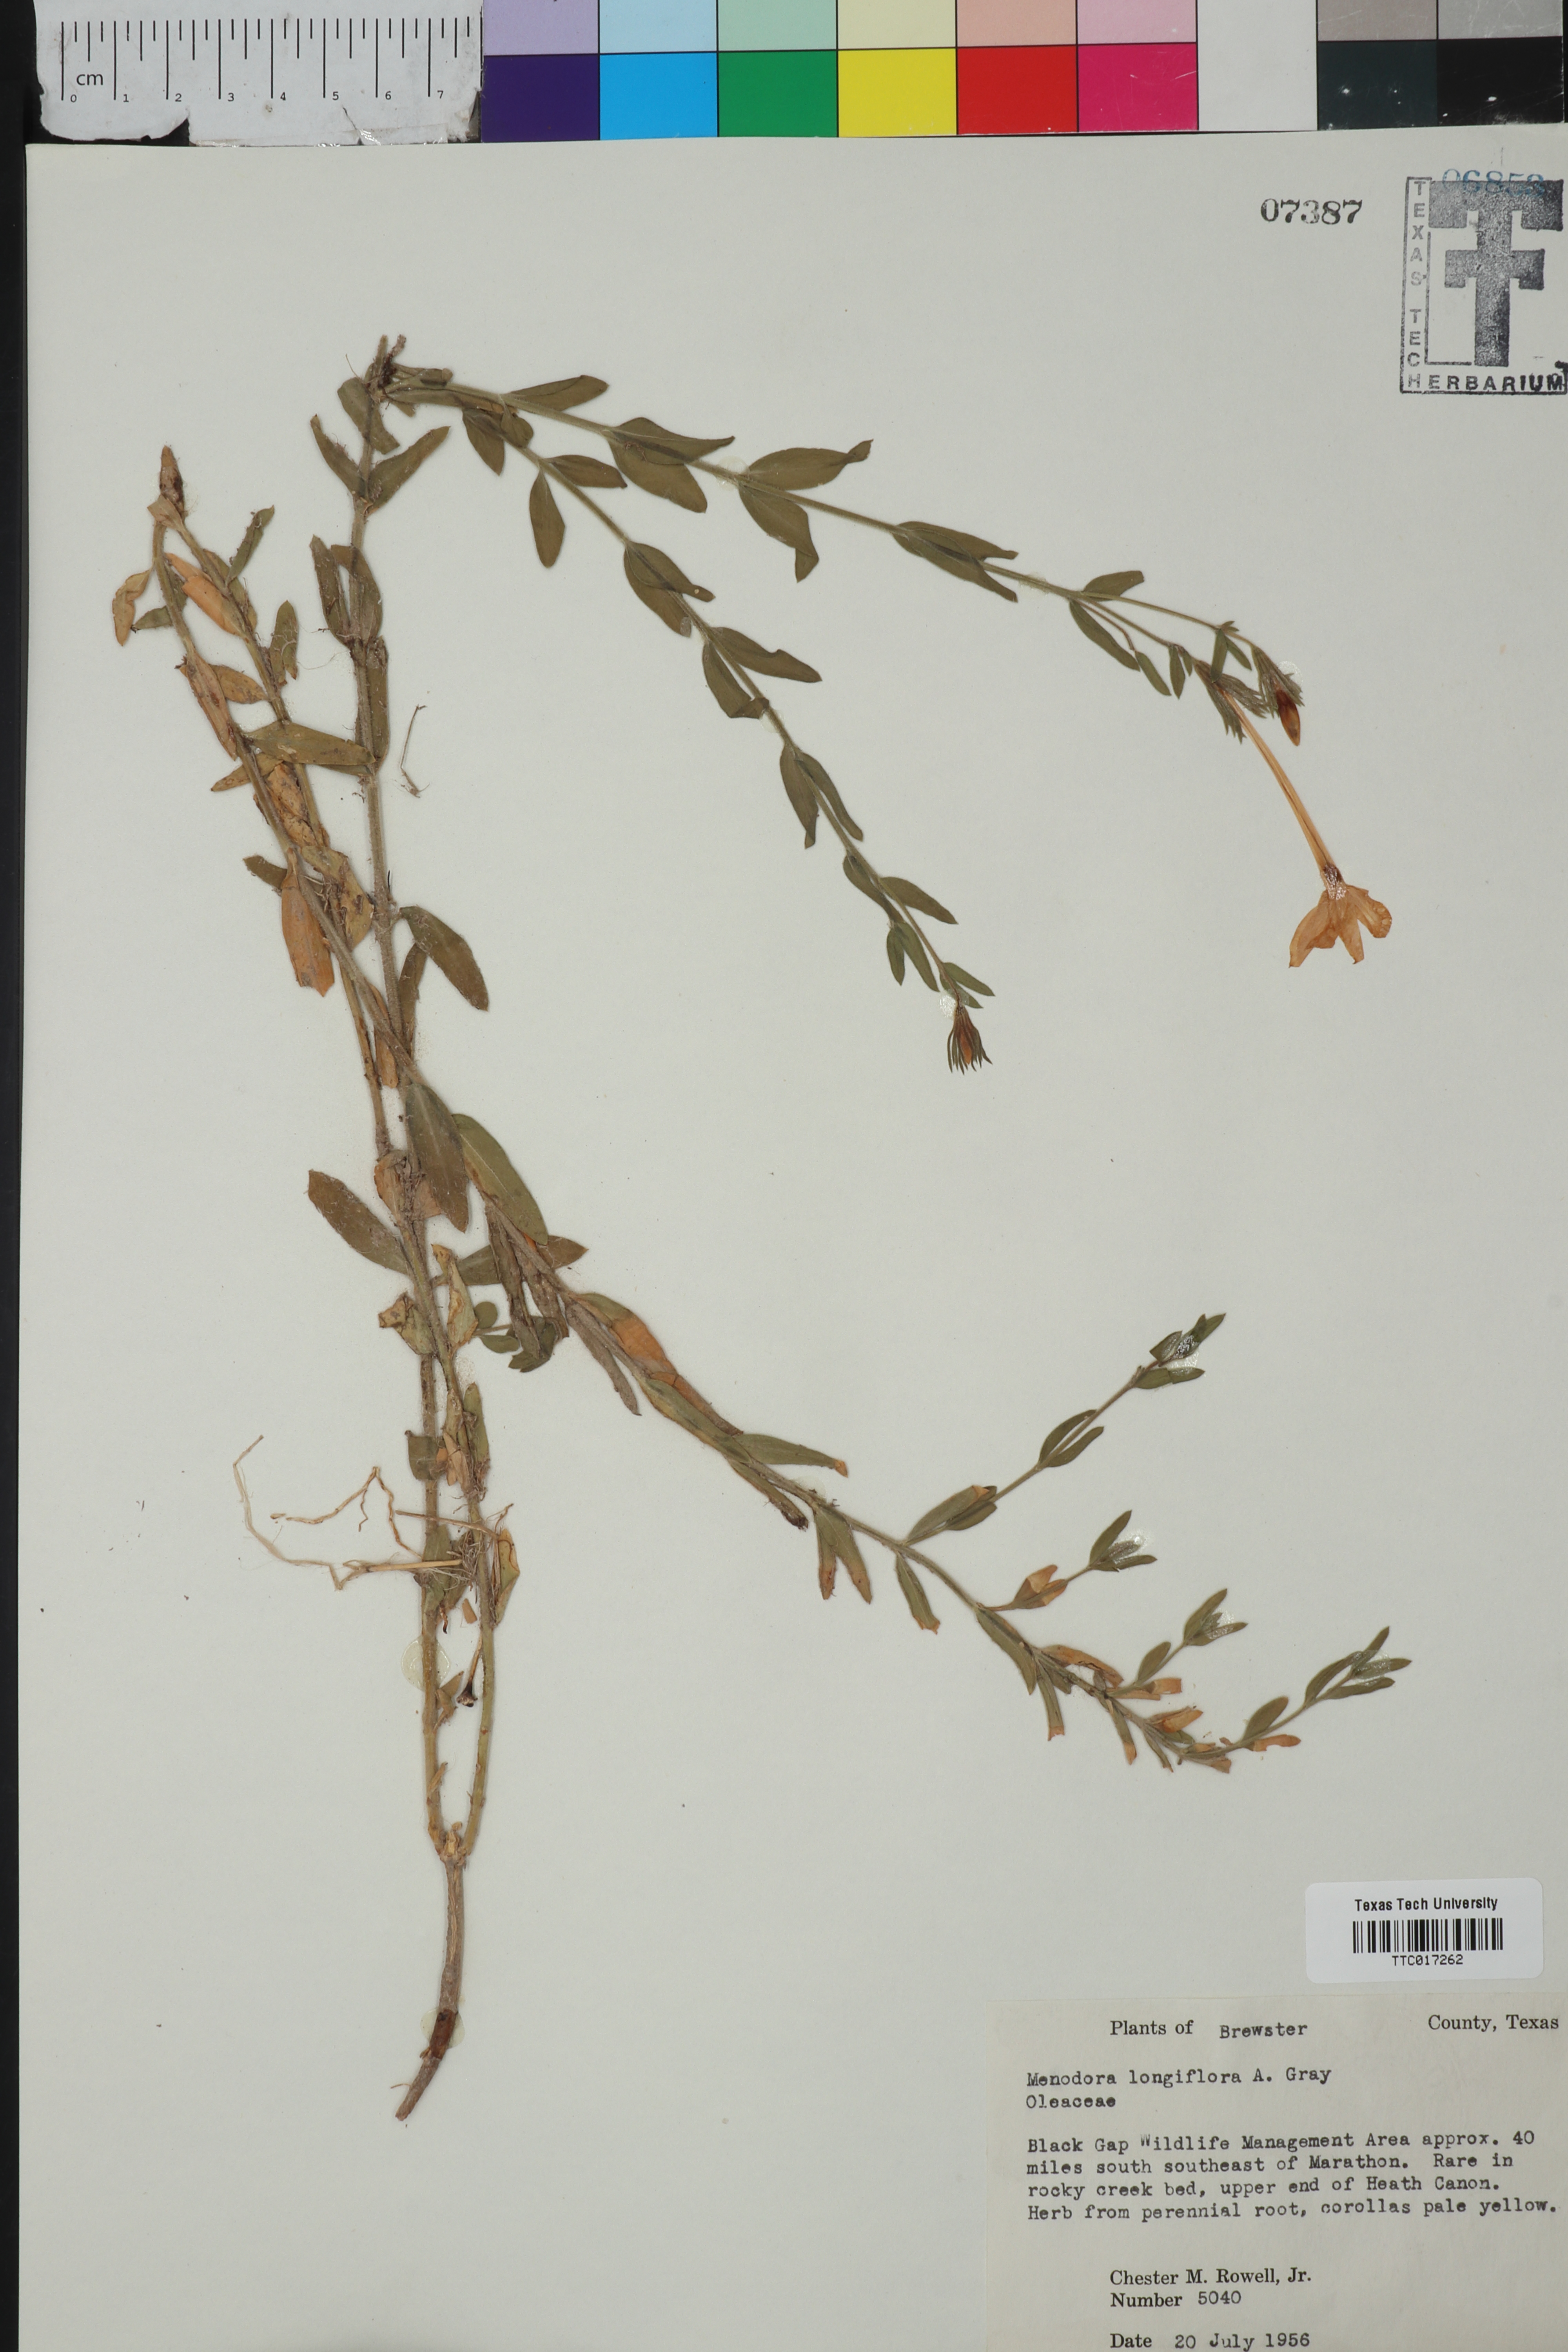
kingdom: Plantae
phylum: Tracheophyta
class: Magnoliopsida
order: Lamiales
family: Oleaceae
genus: Menodora
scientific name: Menodora longiflora
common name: Showy menodora
